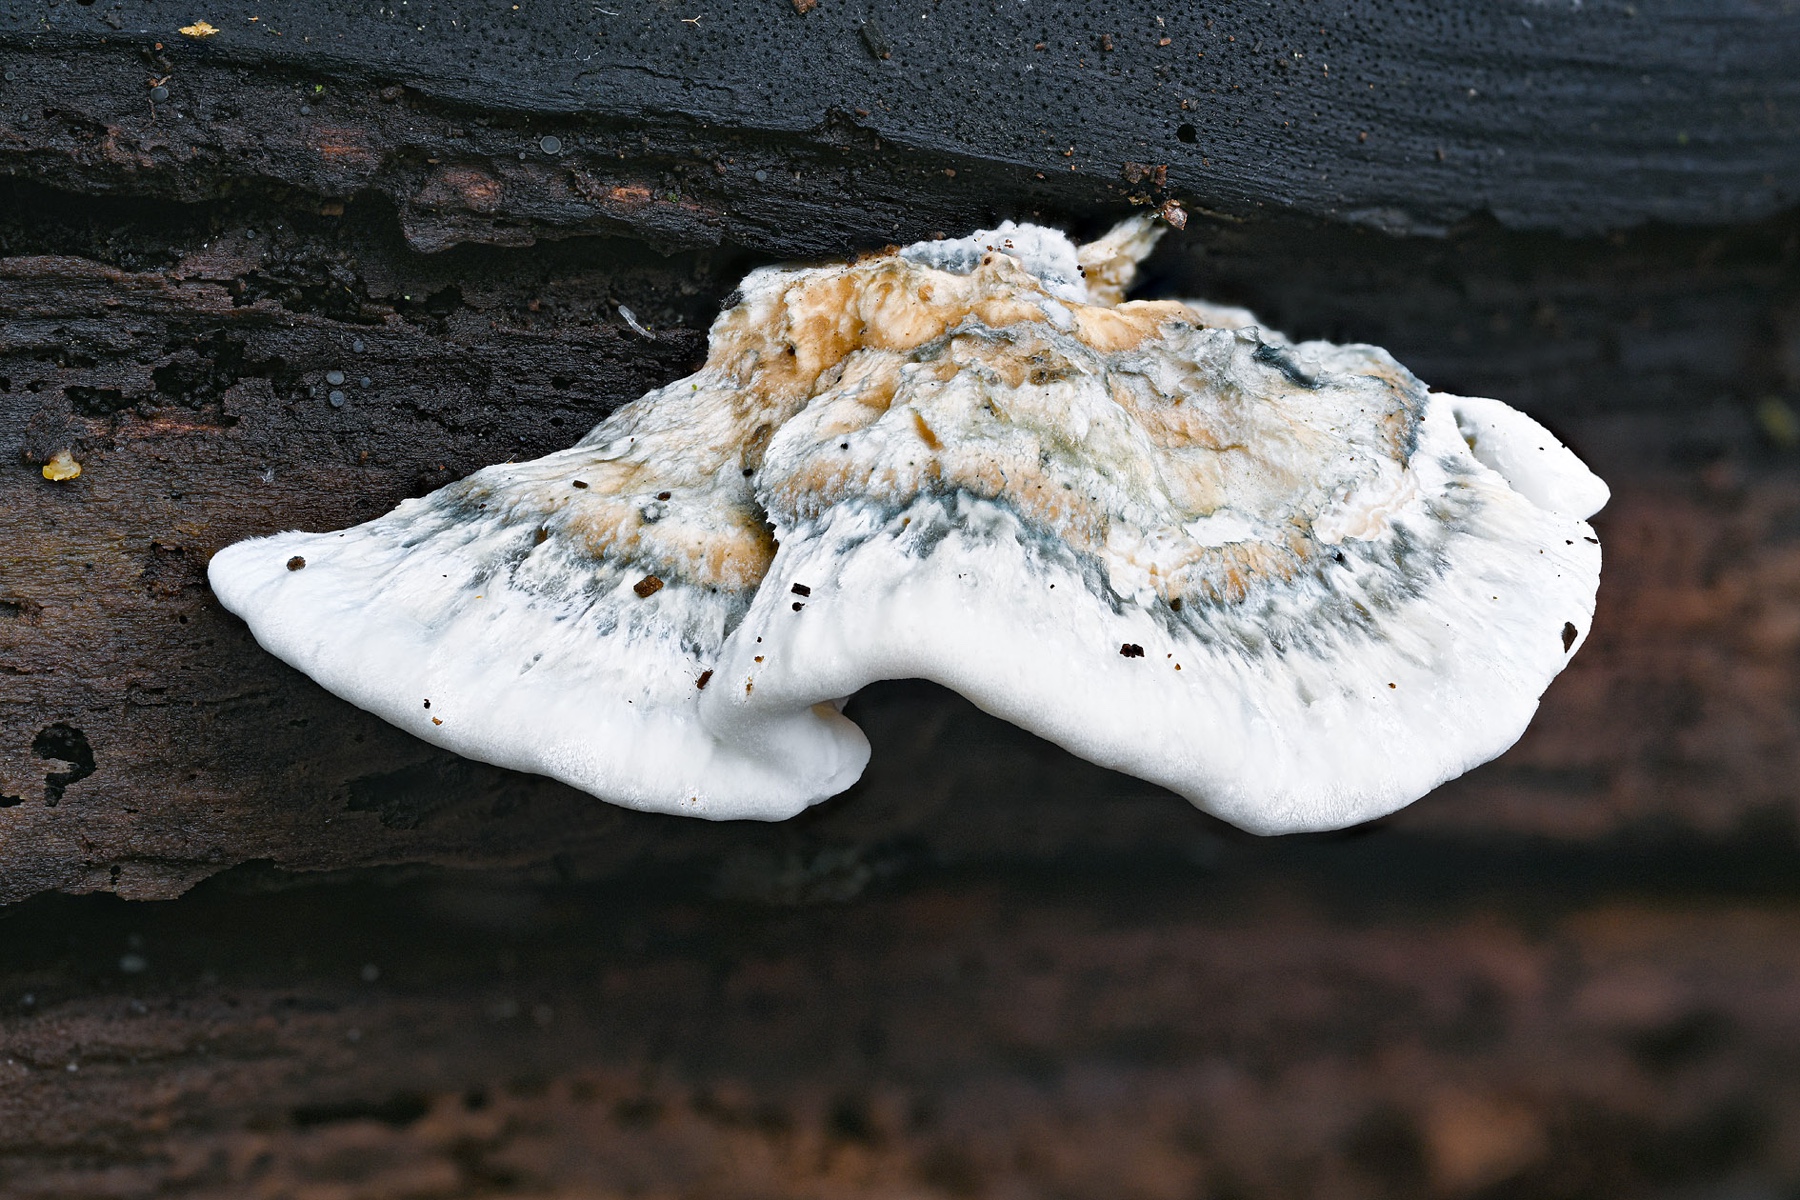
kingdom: Fungi
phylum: Basidiomycota
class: Agaricomycetes
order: Polyporales
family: Polyporaceae
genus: Cyanosporus
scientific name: Cyanosporus alni
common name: blegblå kødporesvamp
